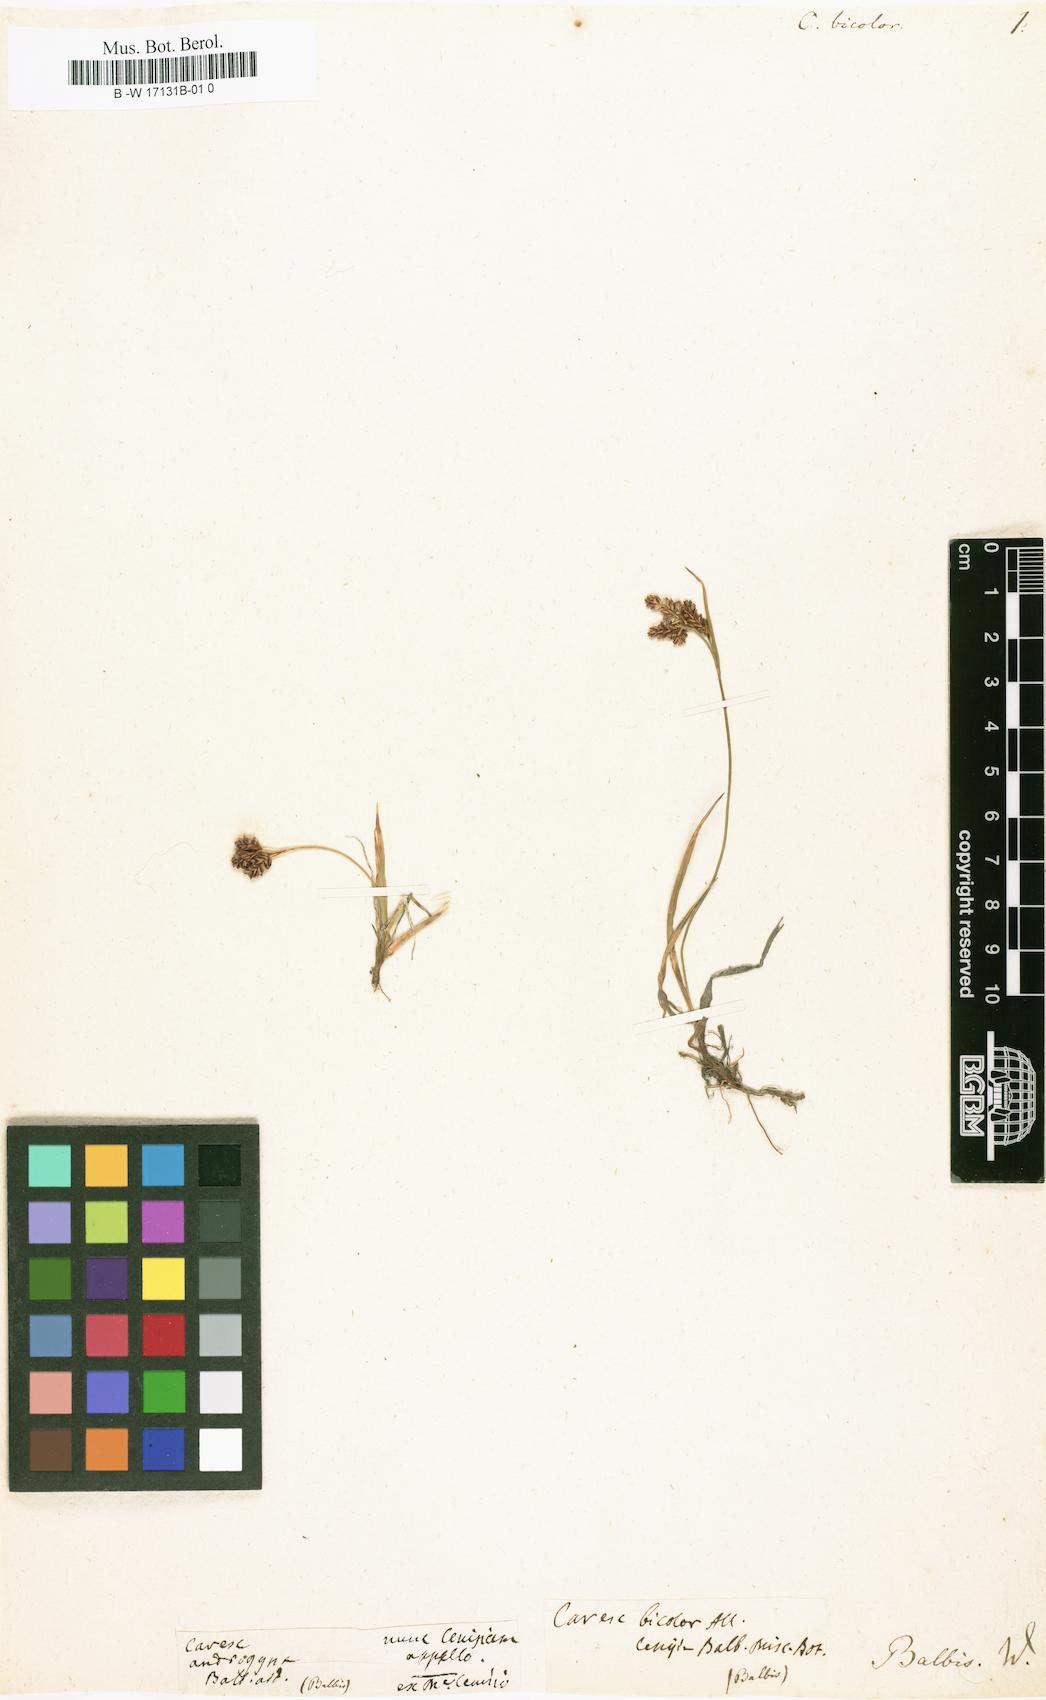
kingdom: Plantae
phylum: Tracheophyta
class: Liliopsida
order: Poales
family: Cyperaceae
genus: Carex
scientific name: Carex bicolor
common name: Bicoloured sedge
